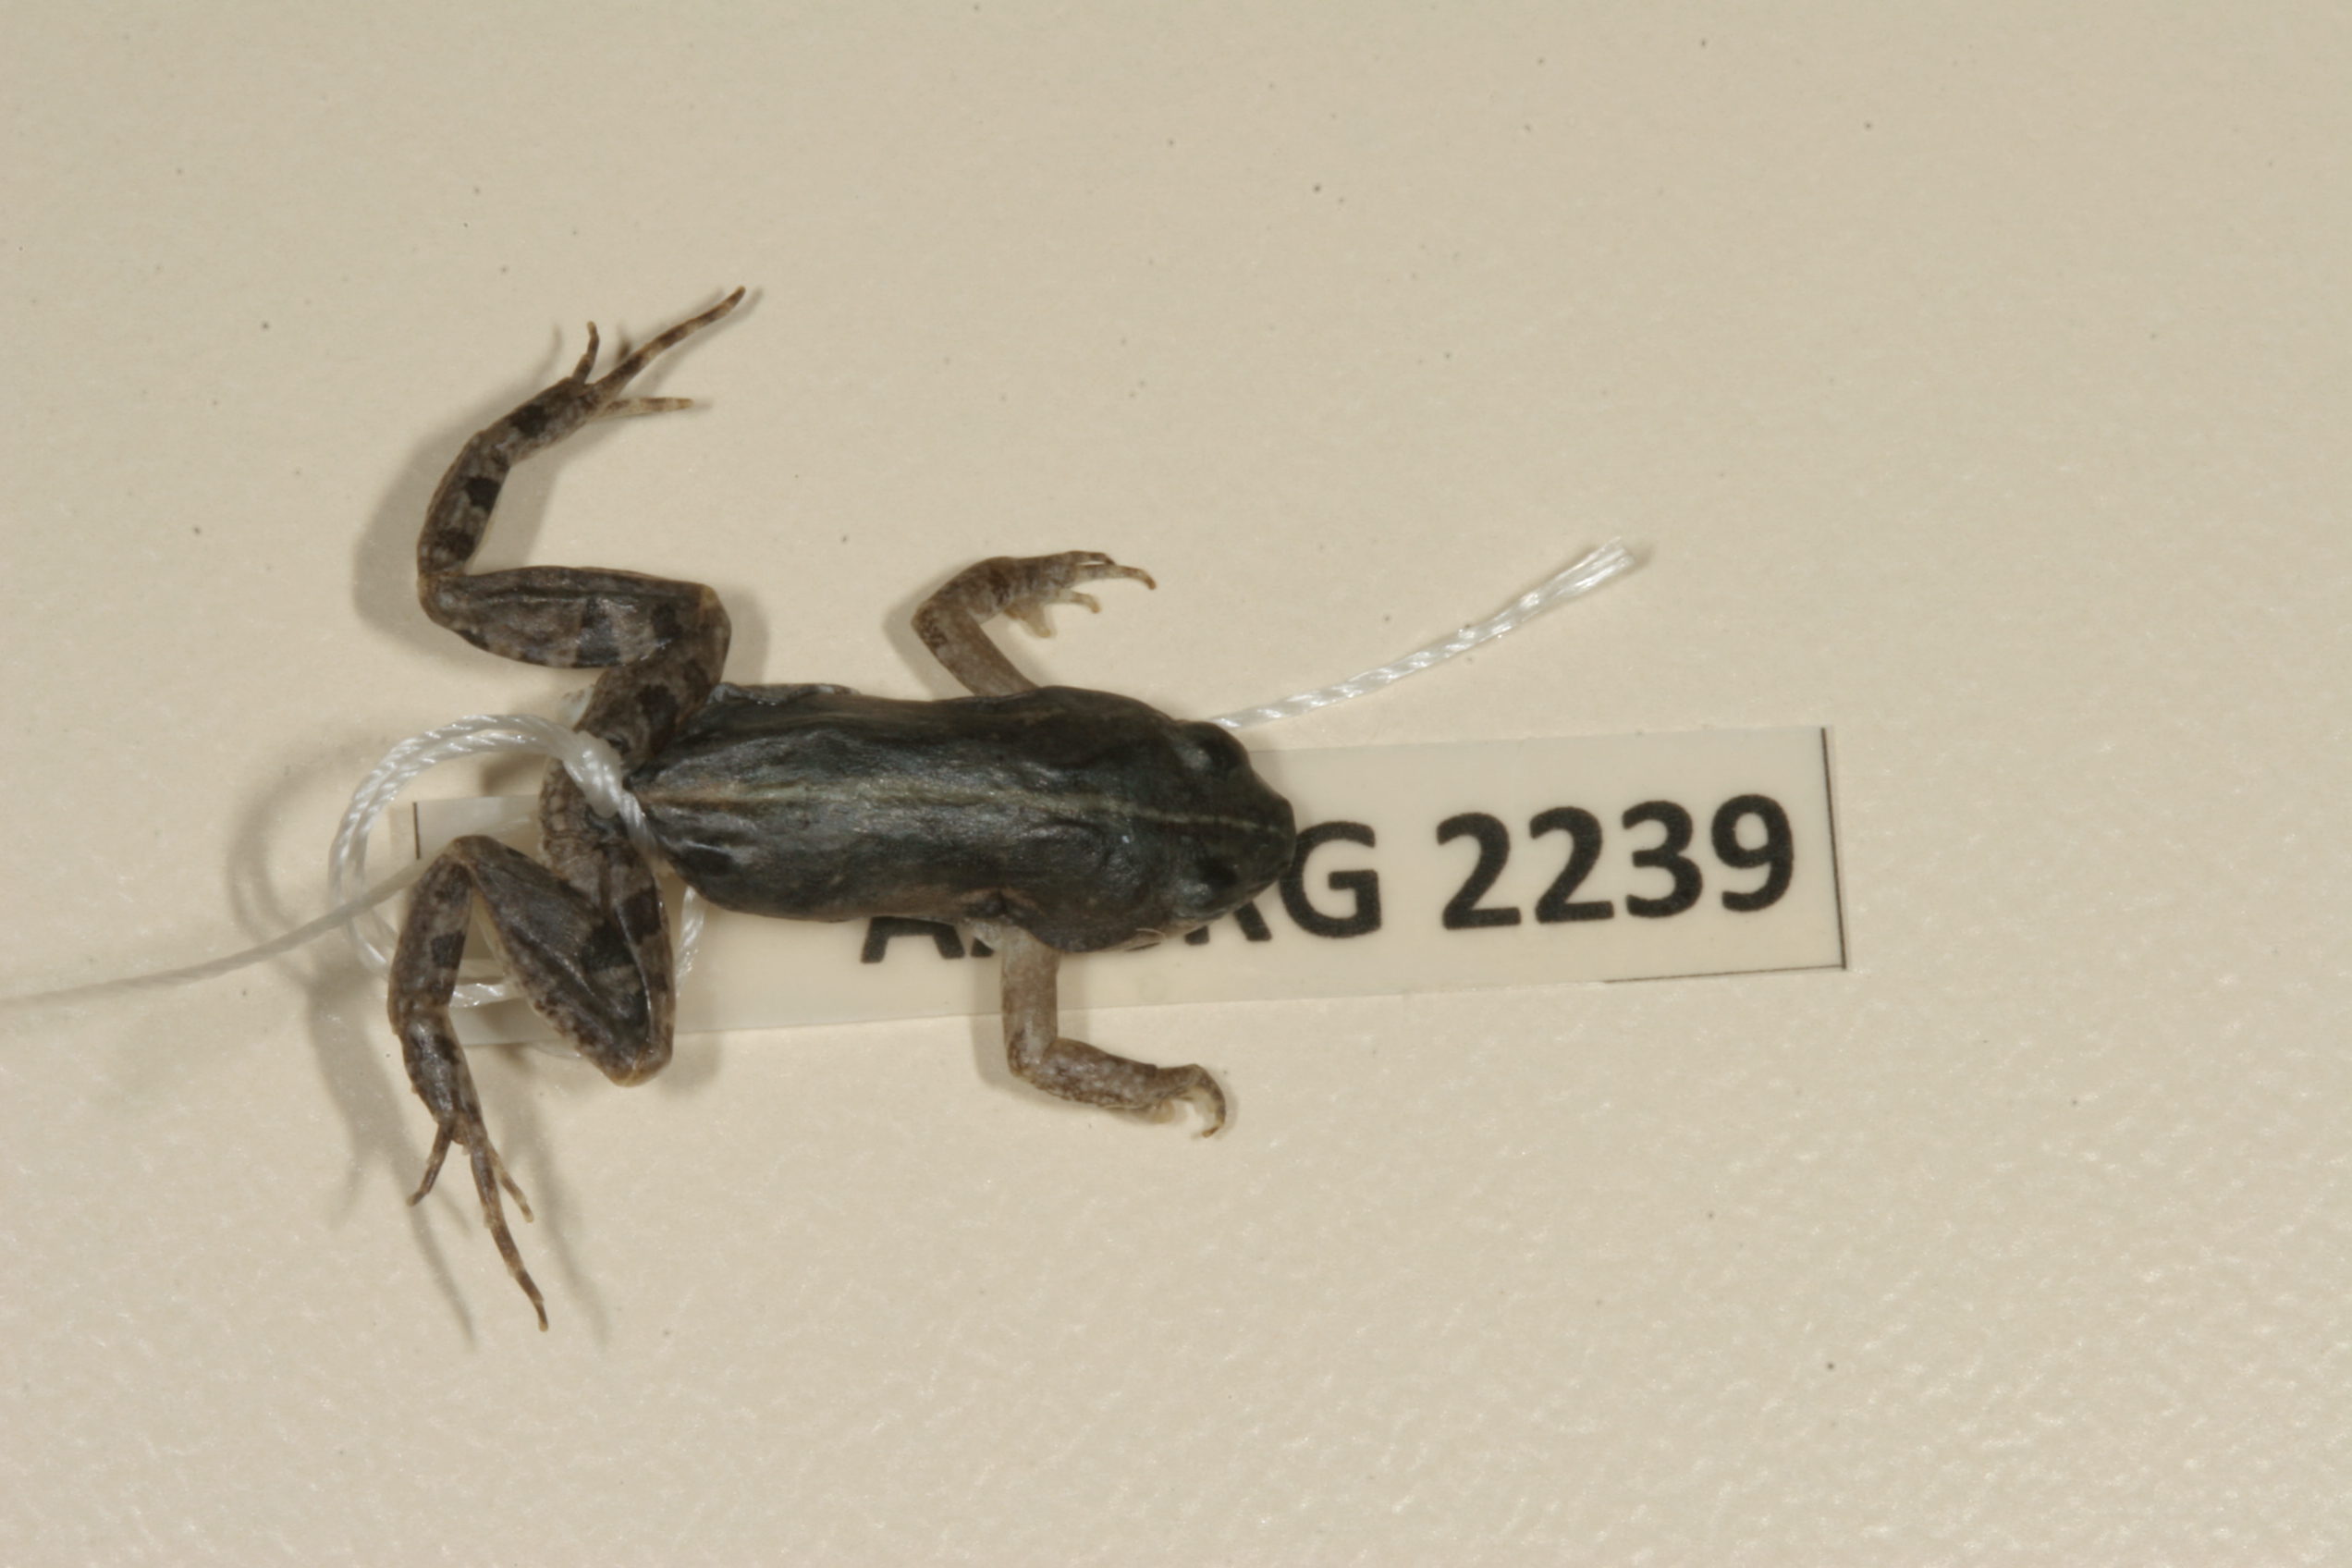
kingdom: Animalia
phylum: Chordata
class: Amphibia
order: Anura
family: Pyxicephalidae
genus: Cacosternum
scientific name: Cacosternum boettgeri
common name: Boettger's frog
